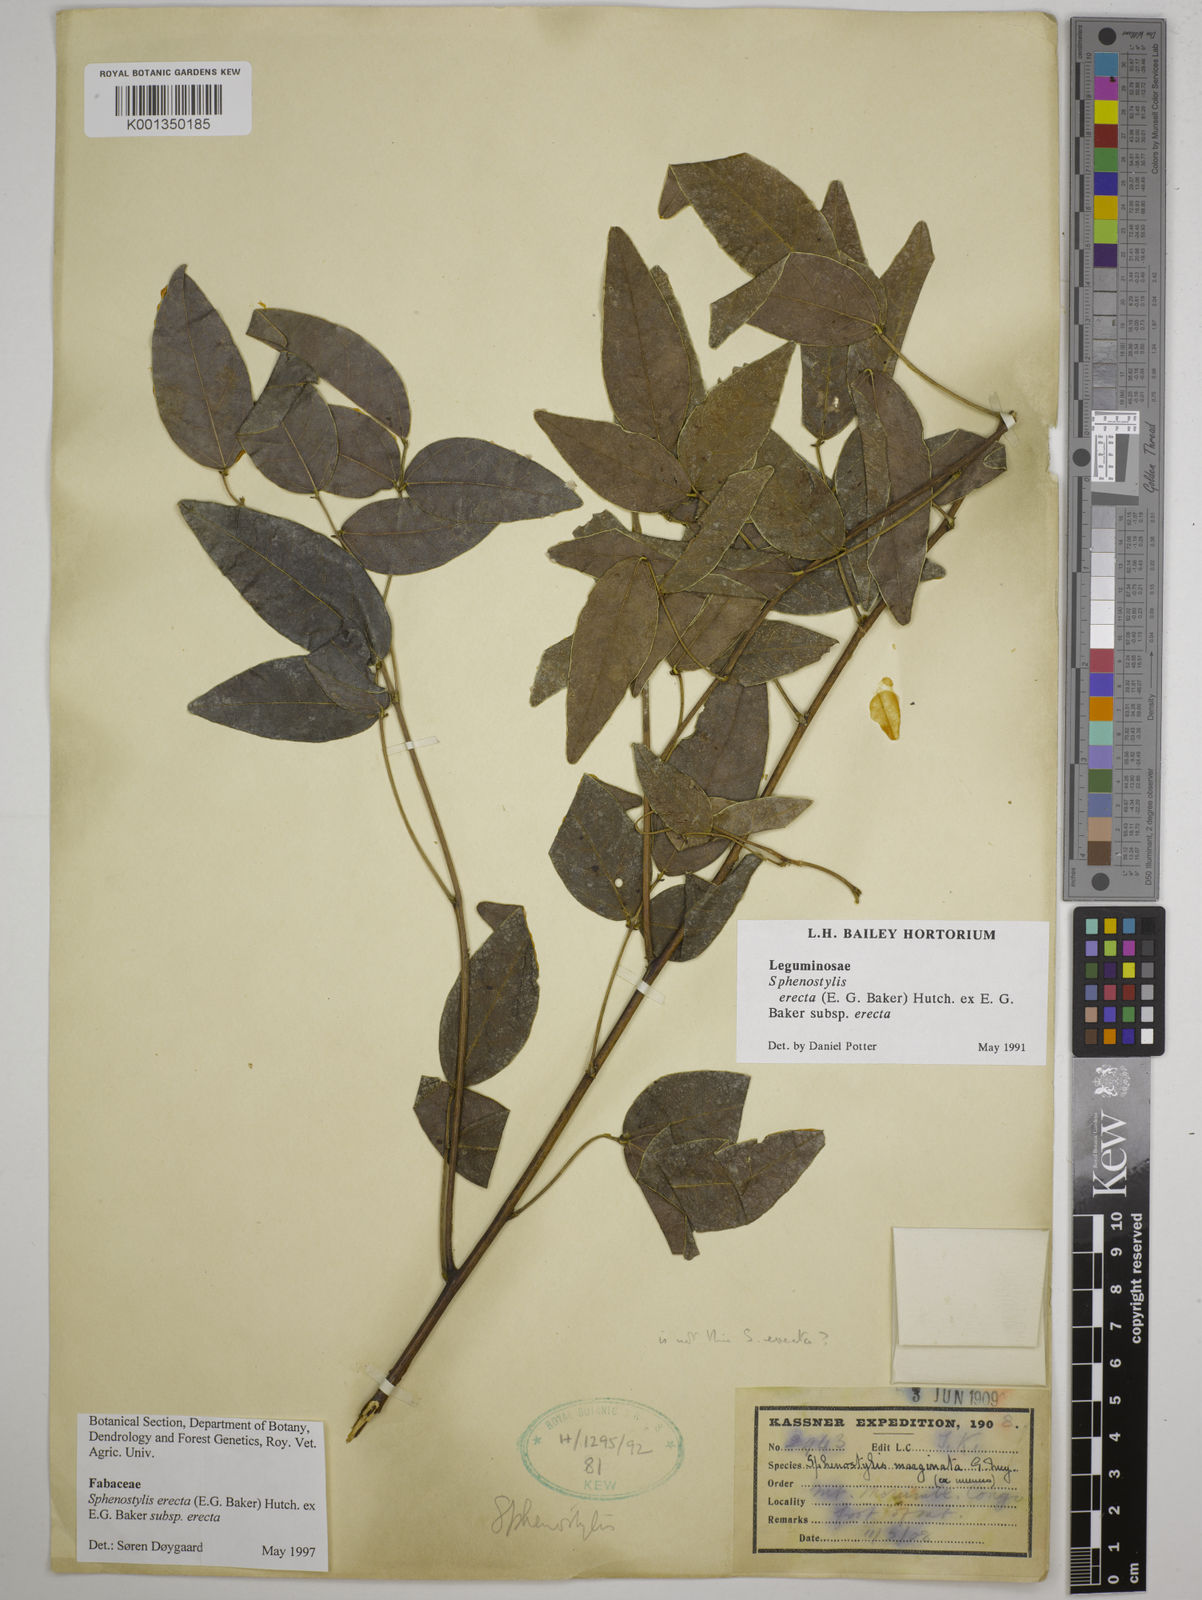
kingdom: Plantae
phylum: Tracheophyta
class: Magnoliopsida
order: Fabales
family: Fabaceae
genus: Sphenostylis
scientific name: Sphenostylis erecta
